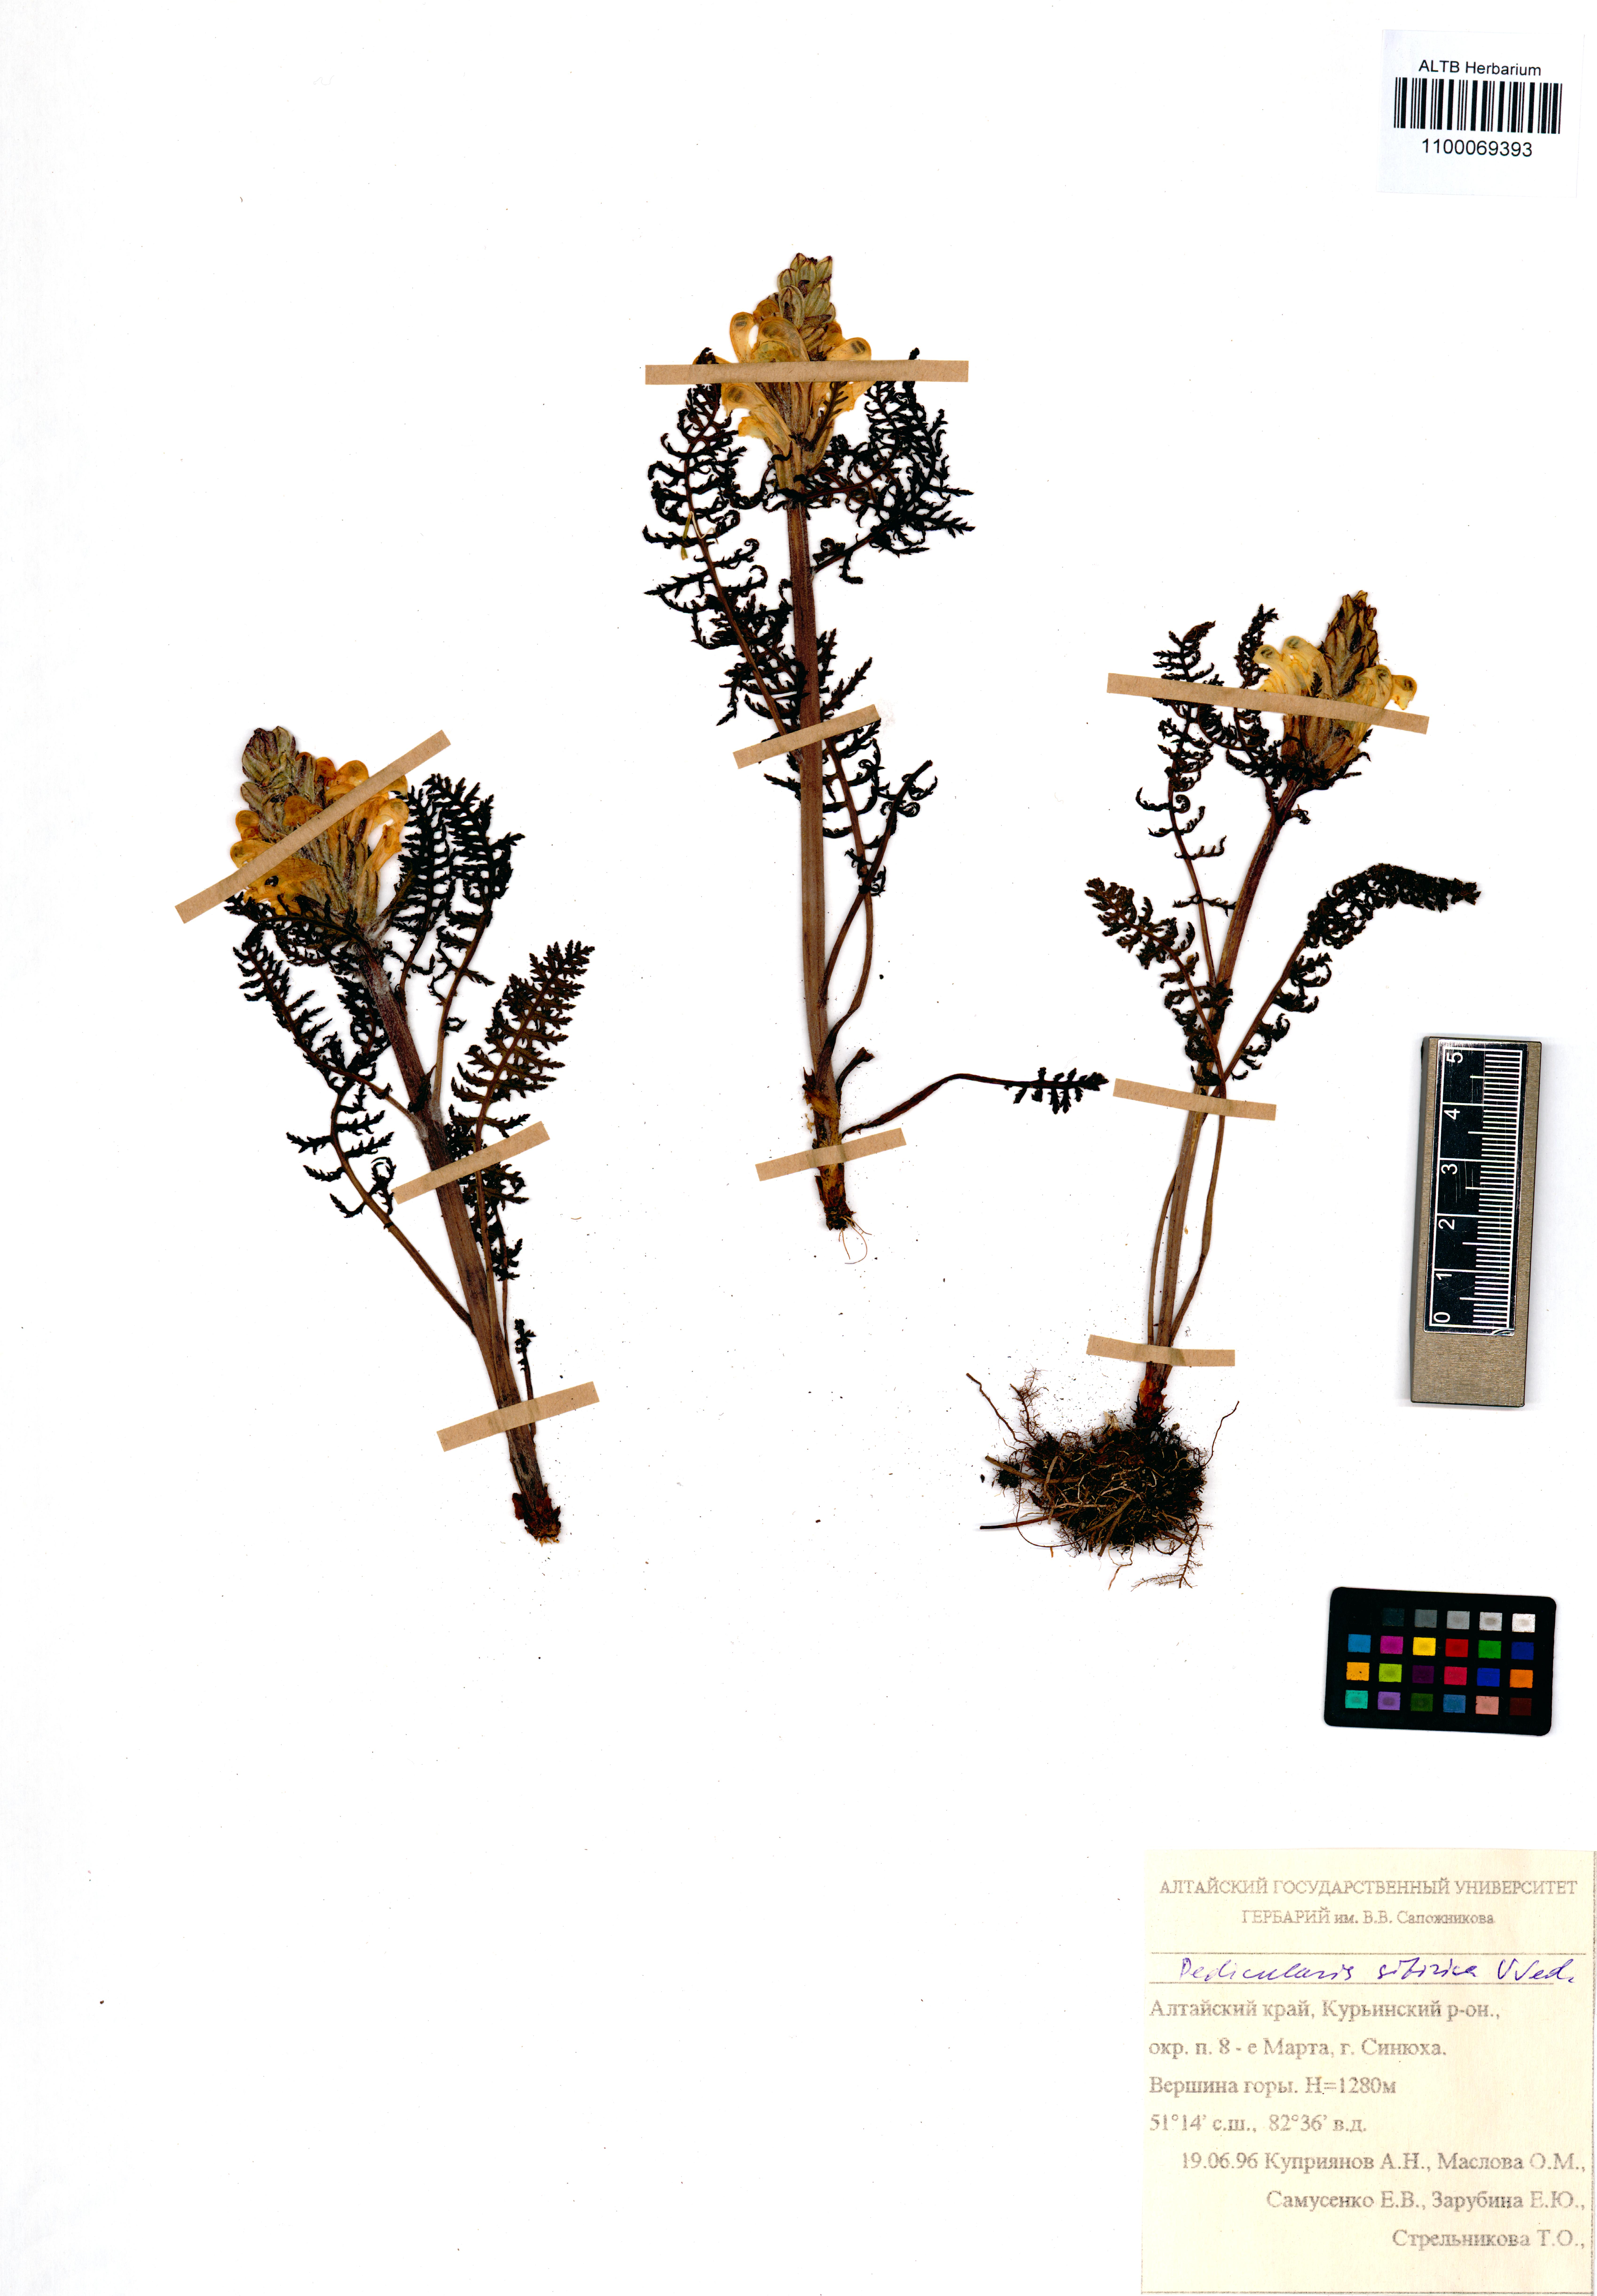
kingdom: Plantae
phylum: Tracheophyta
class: Magnoliopsida
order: Lamiales
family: Orobanchaceae
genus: Pedicularis
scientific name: Pedicularis sibirica
